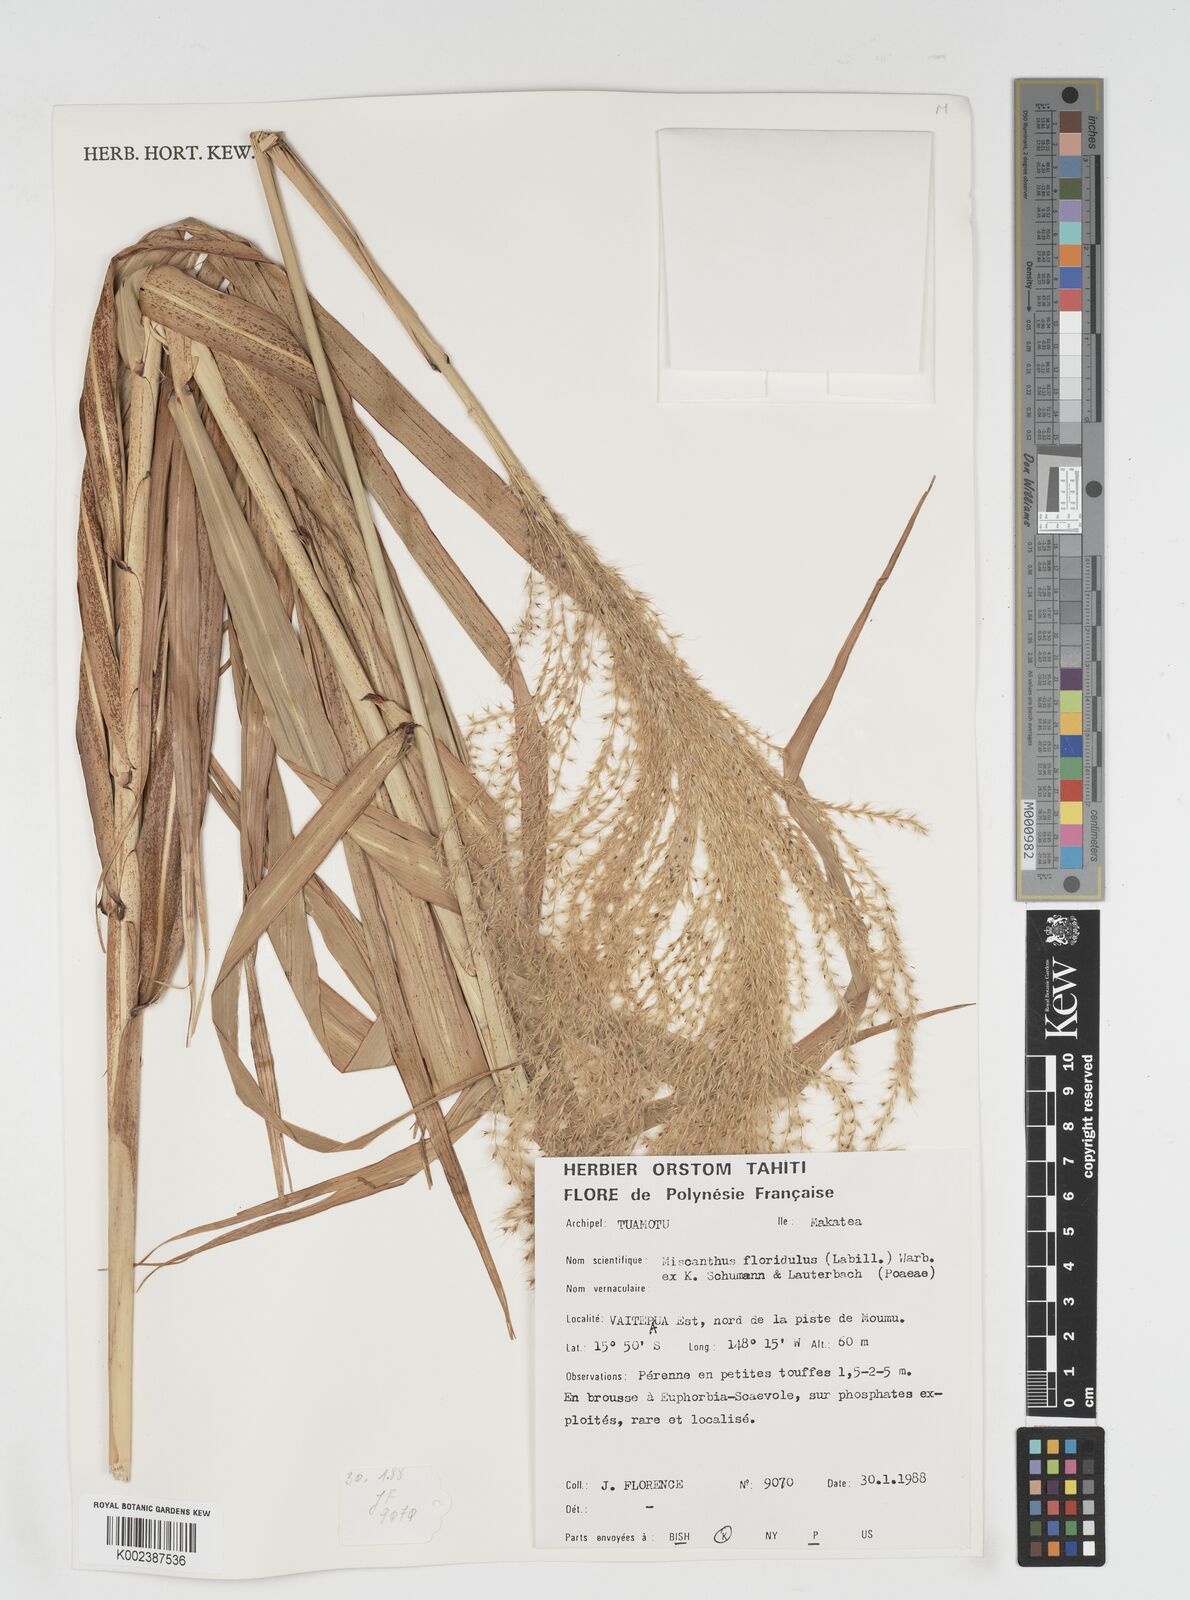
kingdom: Plantae
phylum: Tracheophyta
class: Liliopsida
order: Poales
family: Poaceae
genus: Miscanthus
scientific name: Miscanthus
